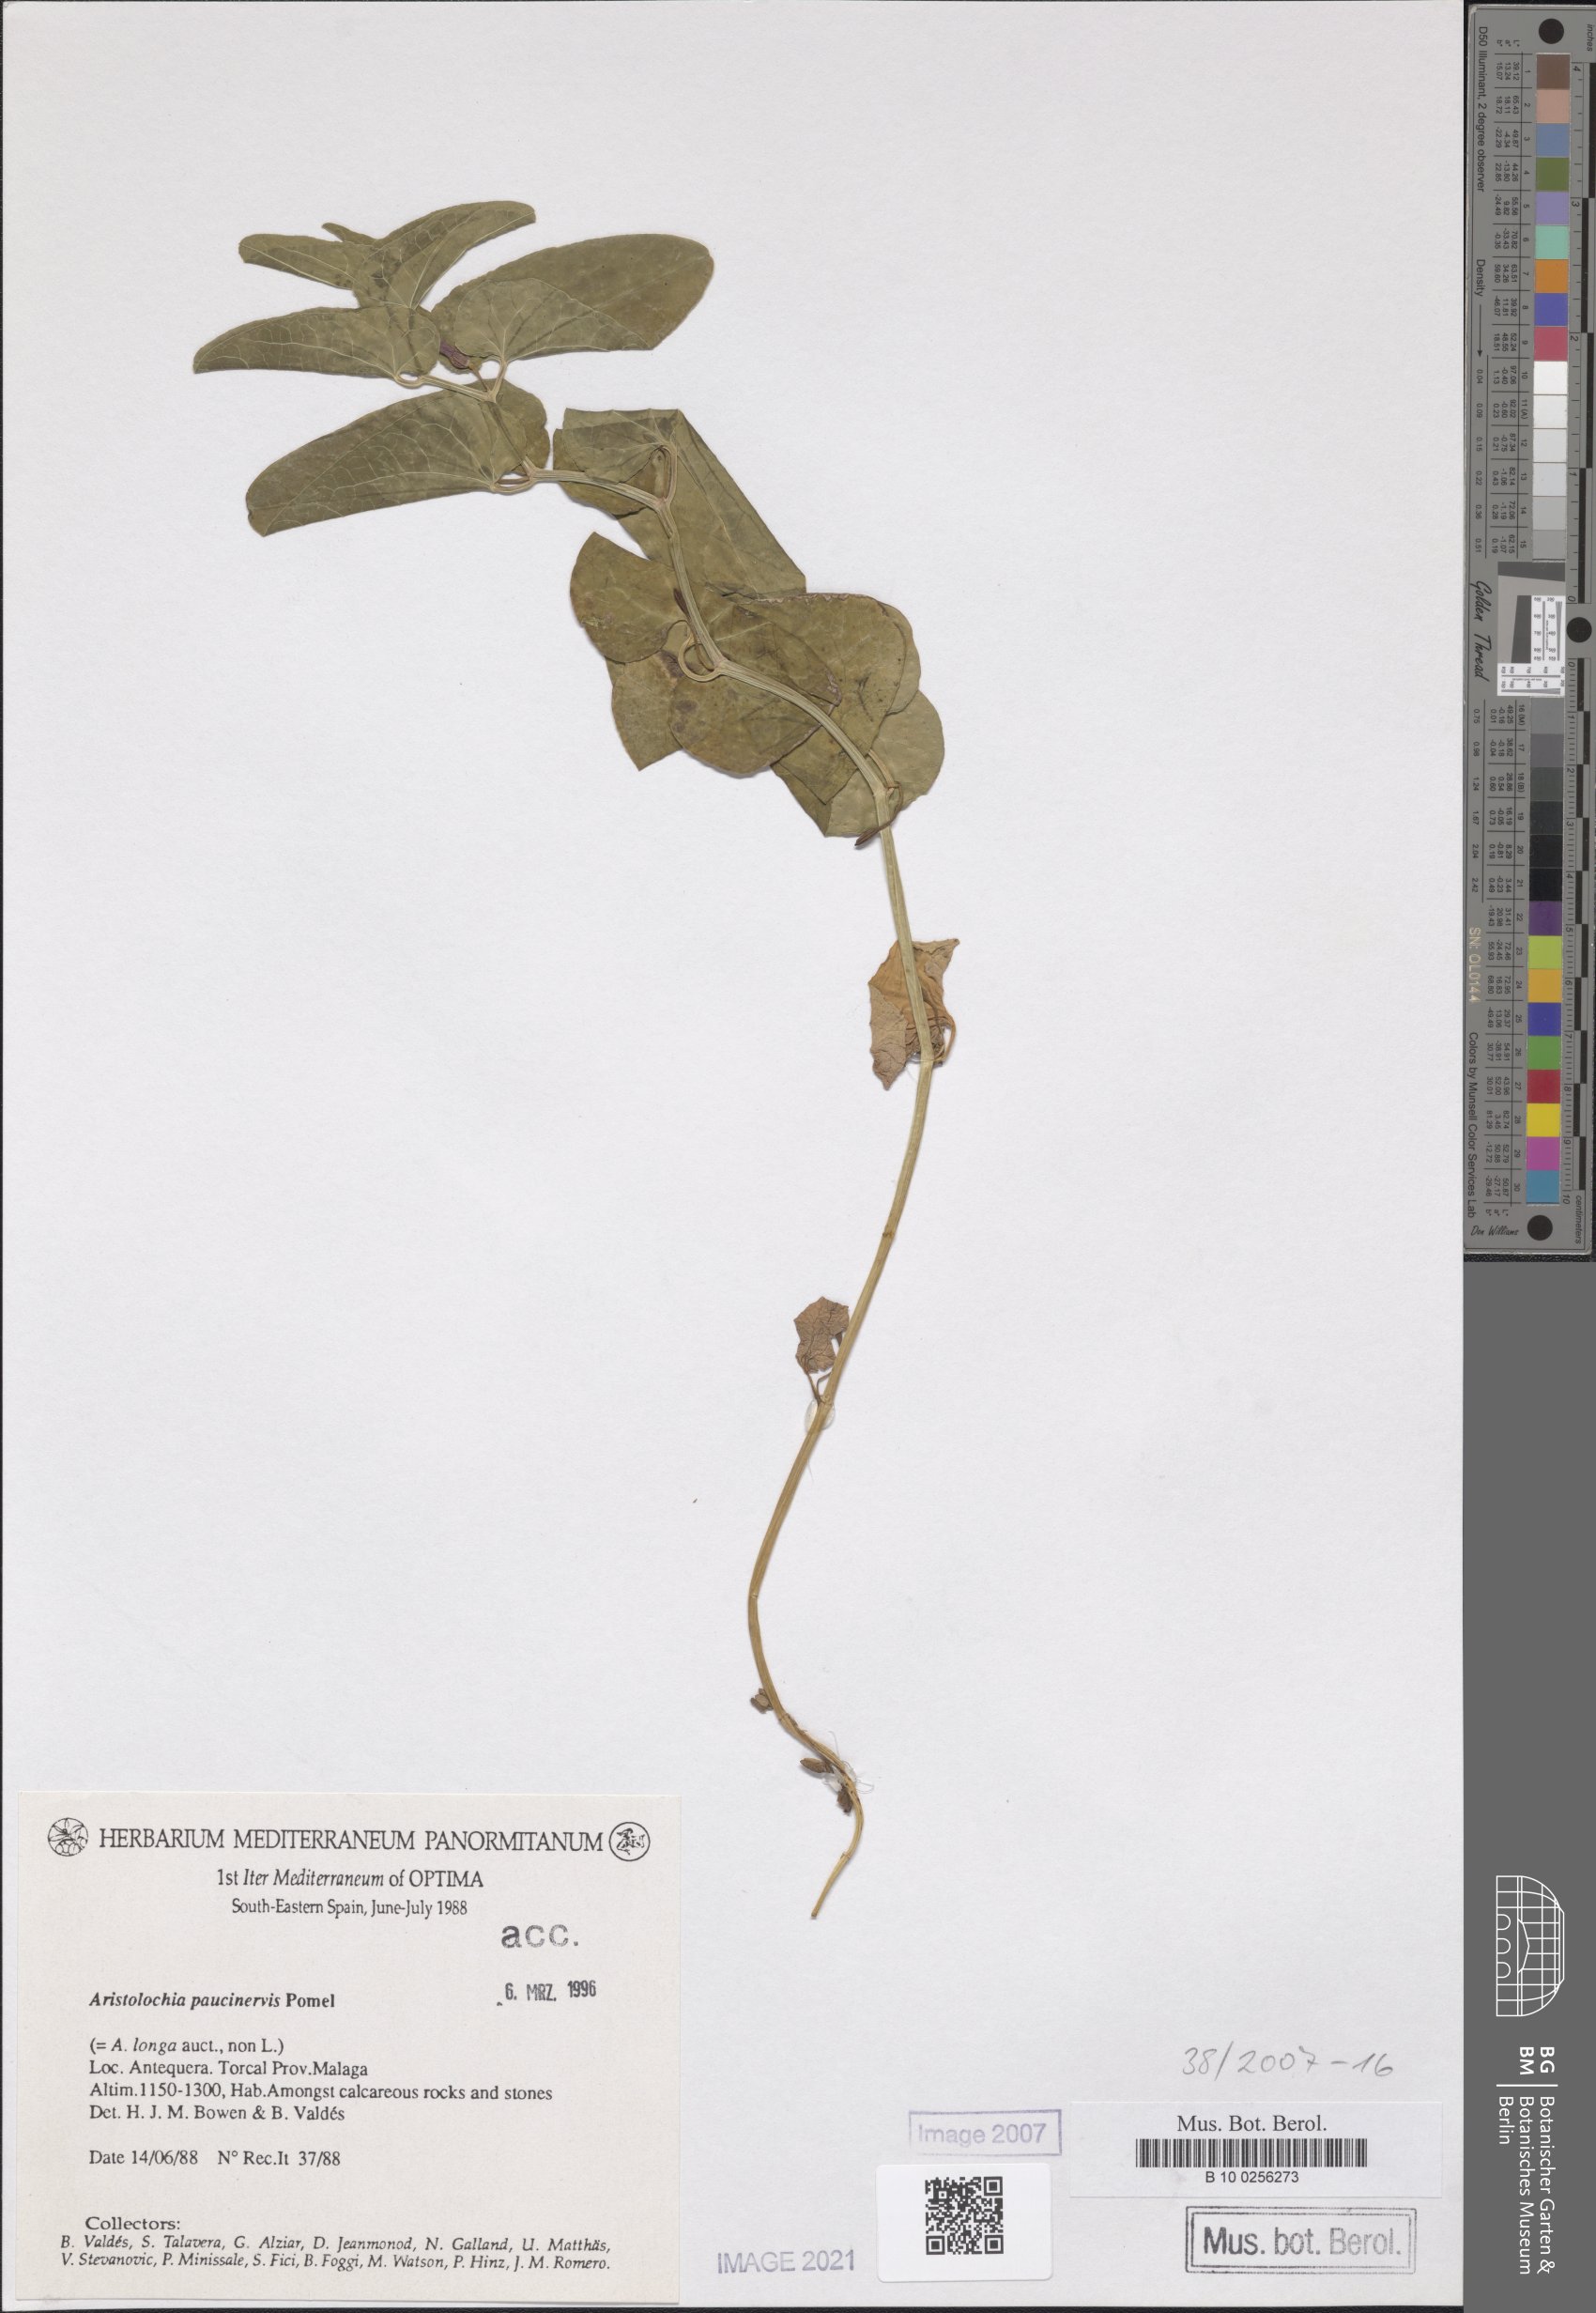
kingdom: Plantae
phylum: Tracheophyta
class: Magnoliopsida
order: Piperales
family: Aristolochiaceae
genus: Aristolochia
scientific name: Aristolochia paucinervis
